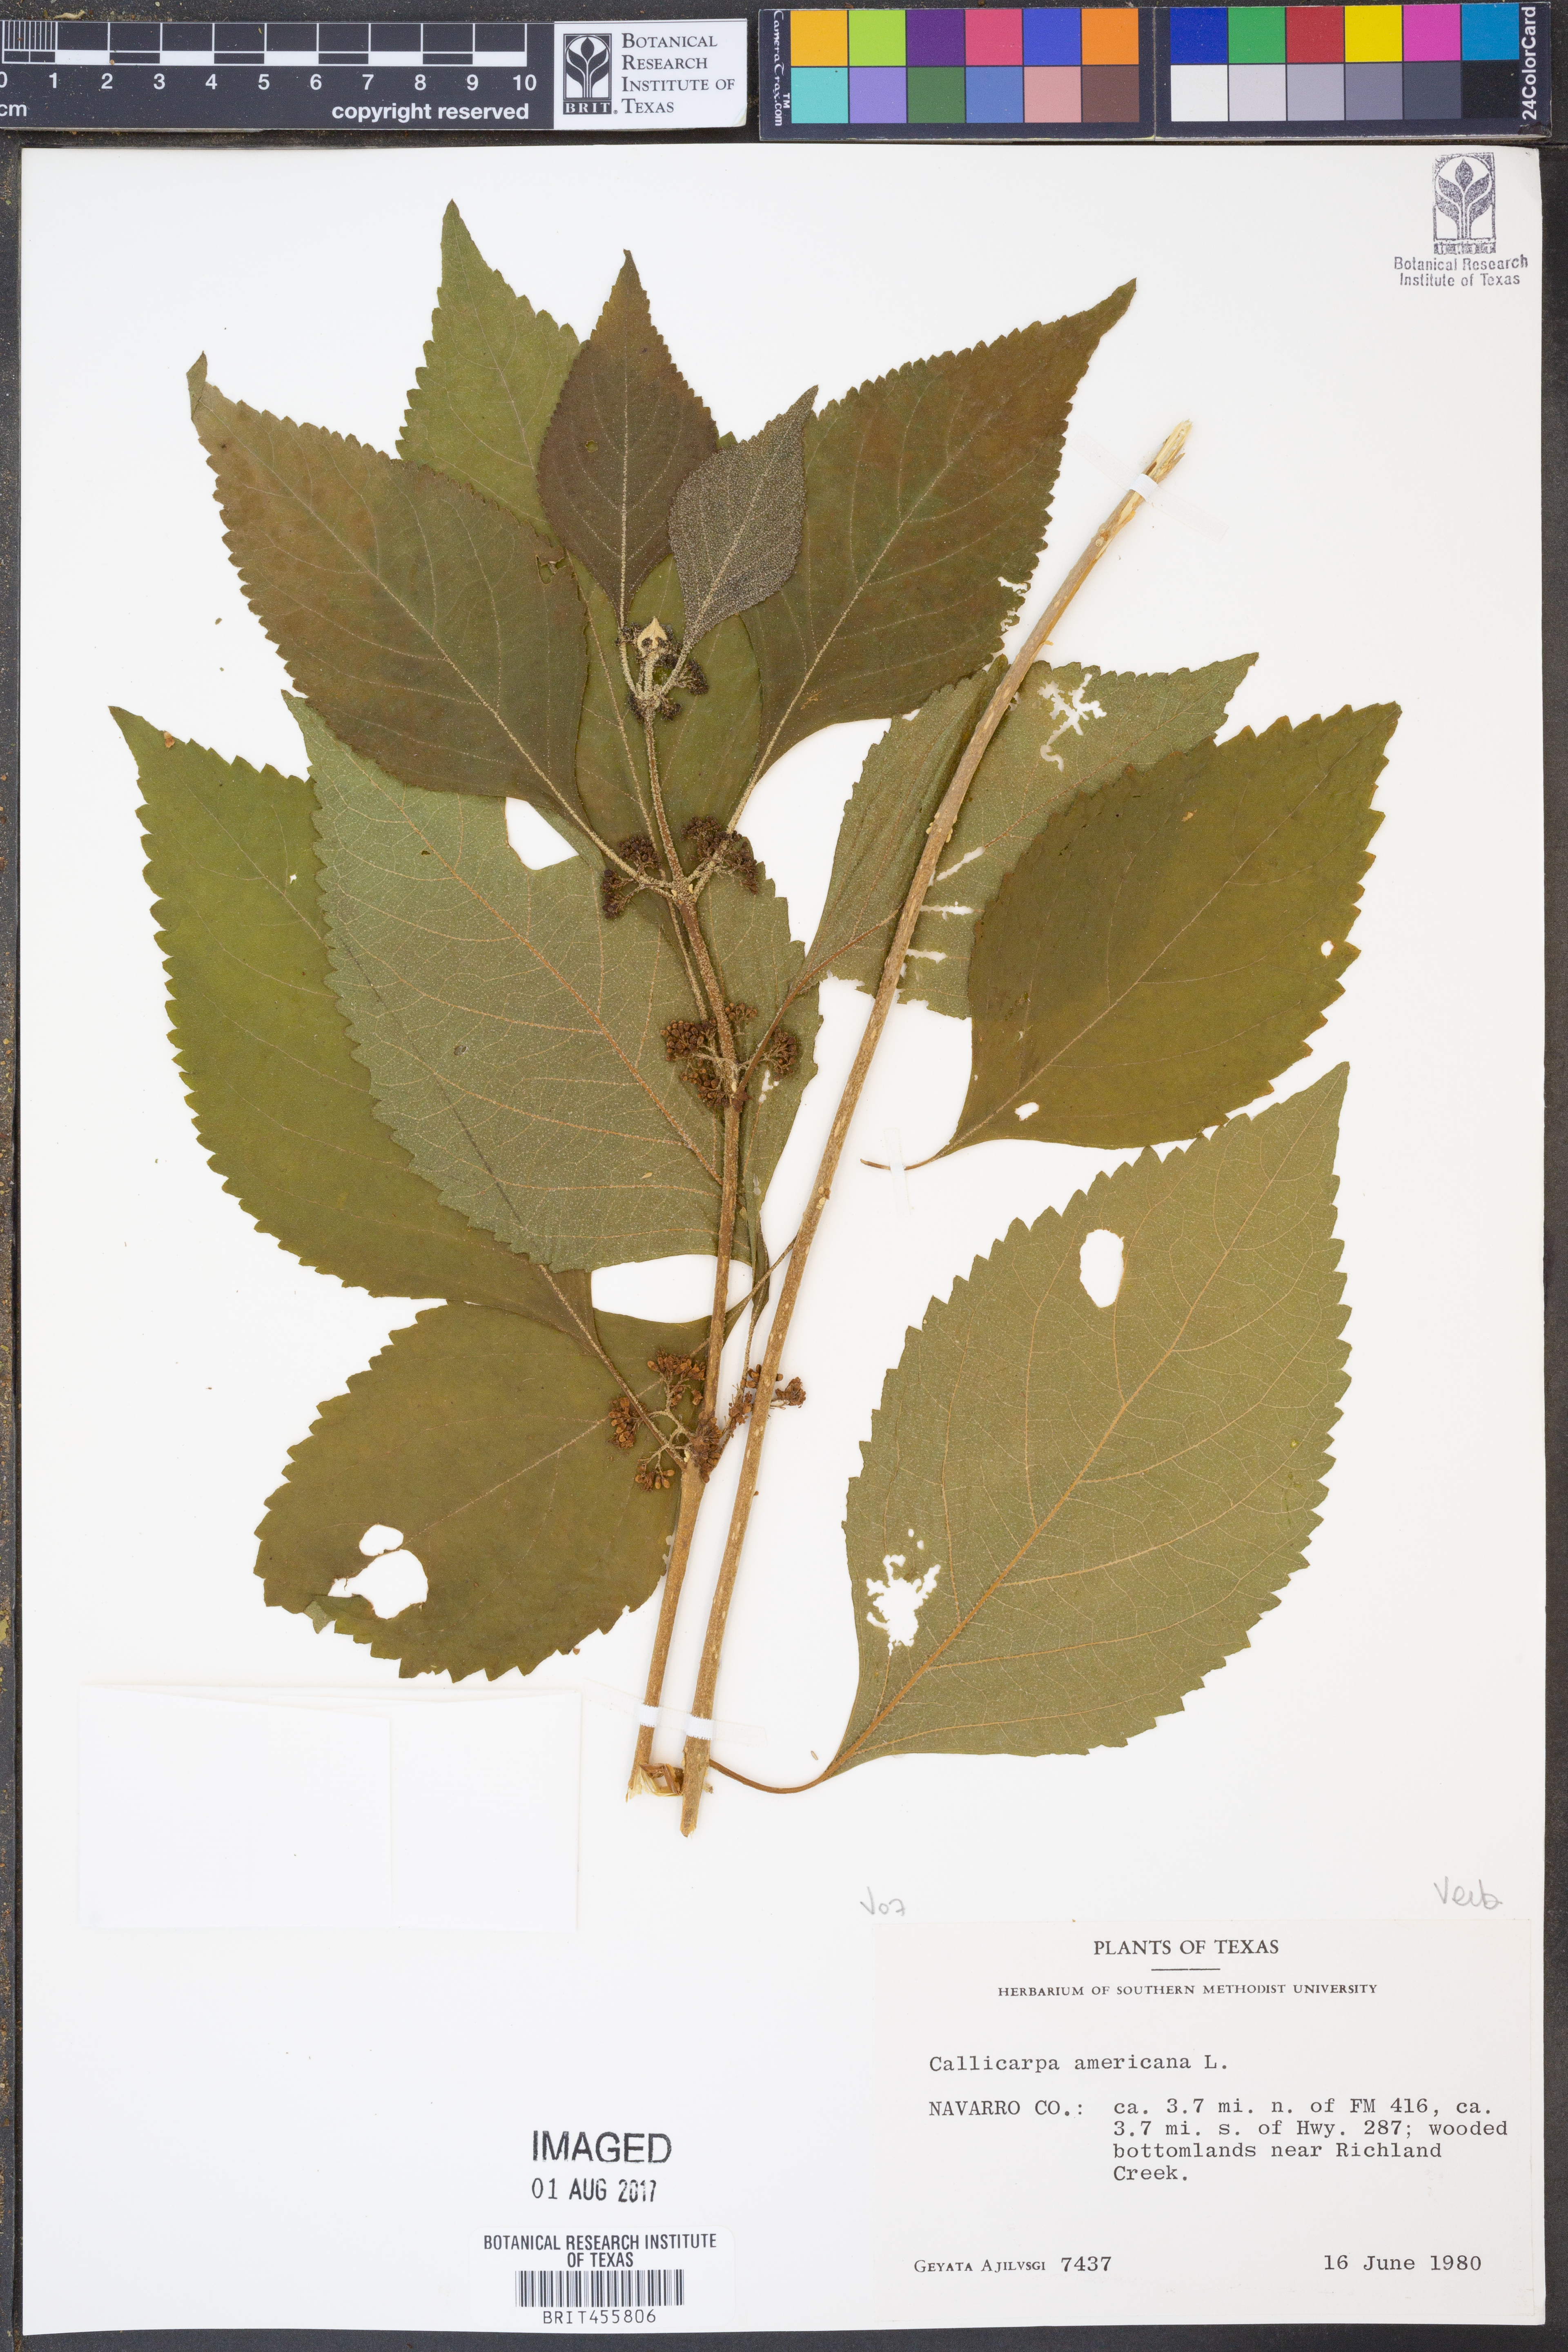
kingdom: Plantae
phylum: Tracheophyta
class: Magnoliopsida
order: Lamiales
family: Lamiaceae
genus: Callicarpa
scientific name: Callicarpa americana
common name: American beautyberry
